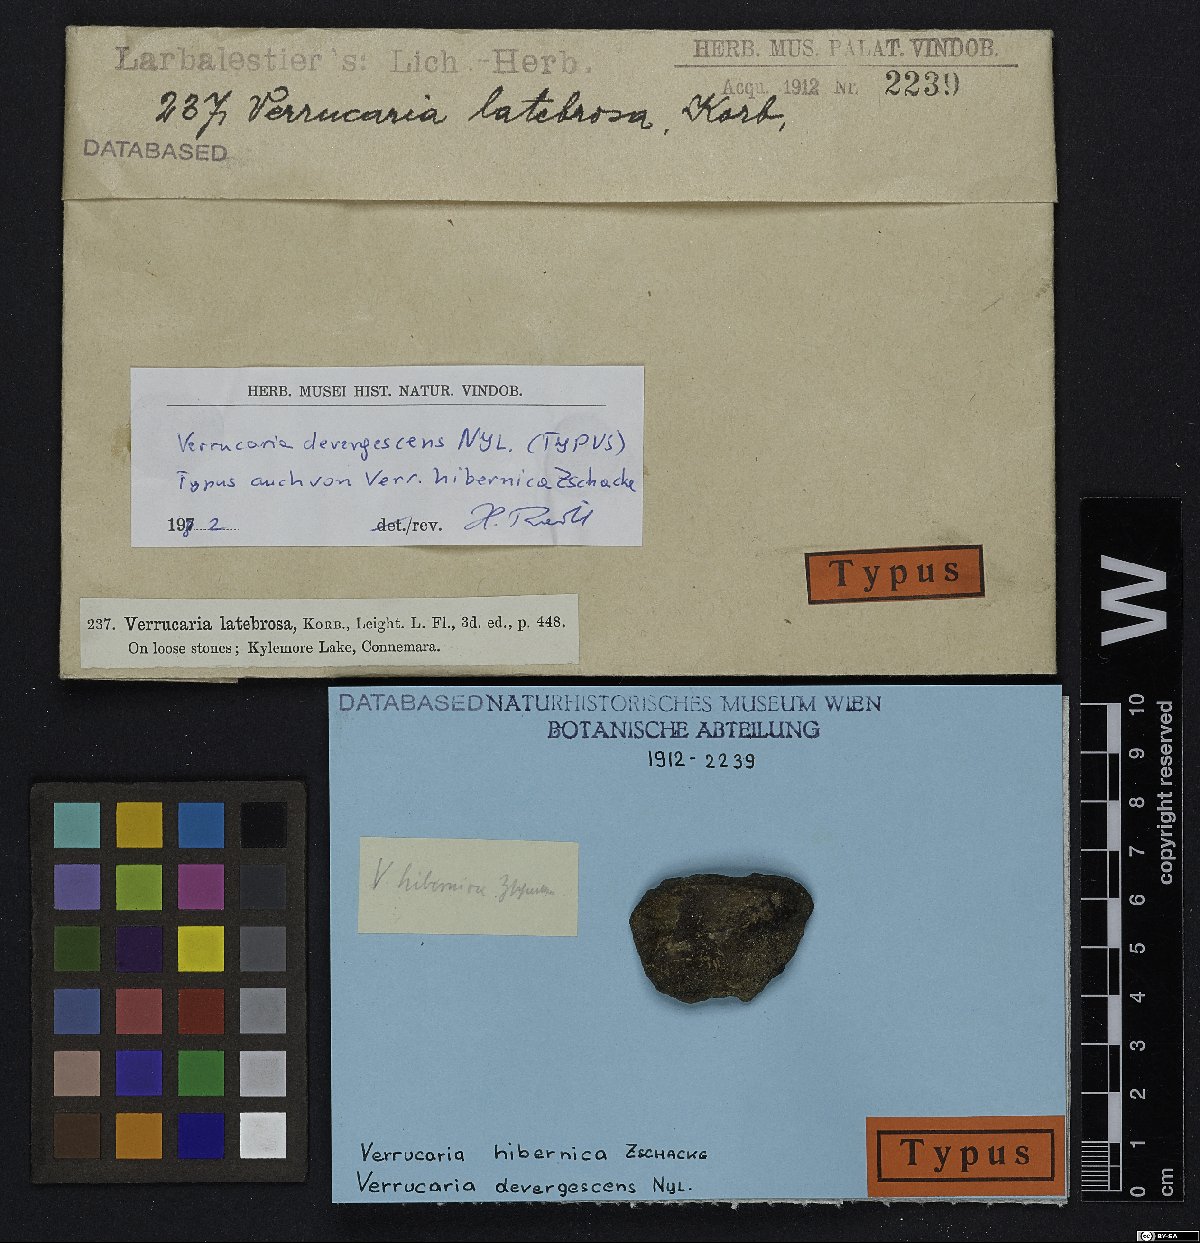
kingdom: Fungi
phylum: Ascomycota
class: Eurotiomycetes
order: Verrucariales
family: Verrucariaceae
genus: Verrucaria
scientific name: Verrucaria margacea
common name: Inundated speck lichen
